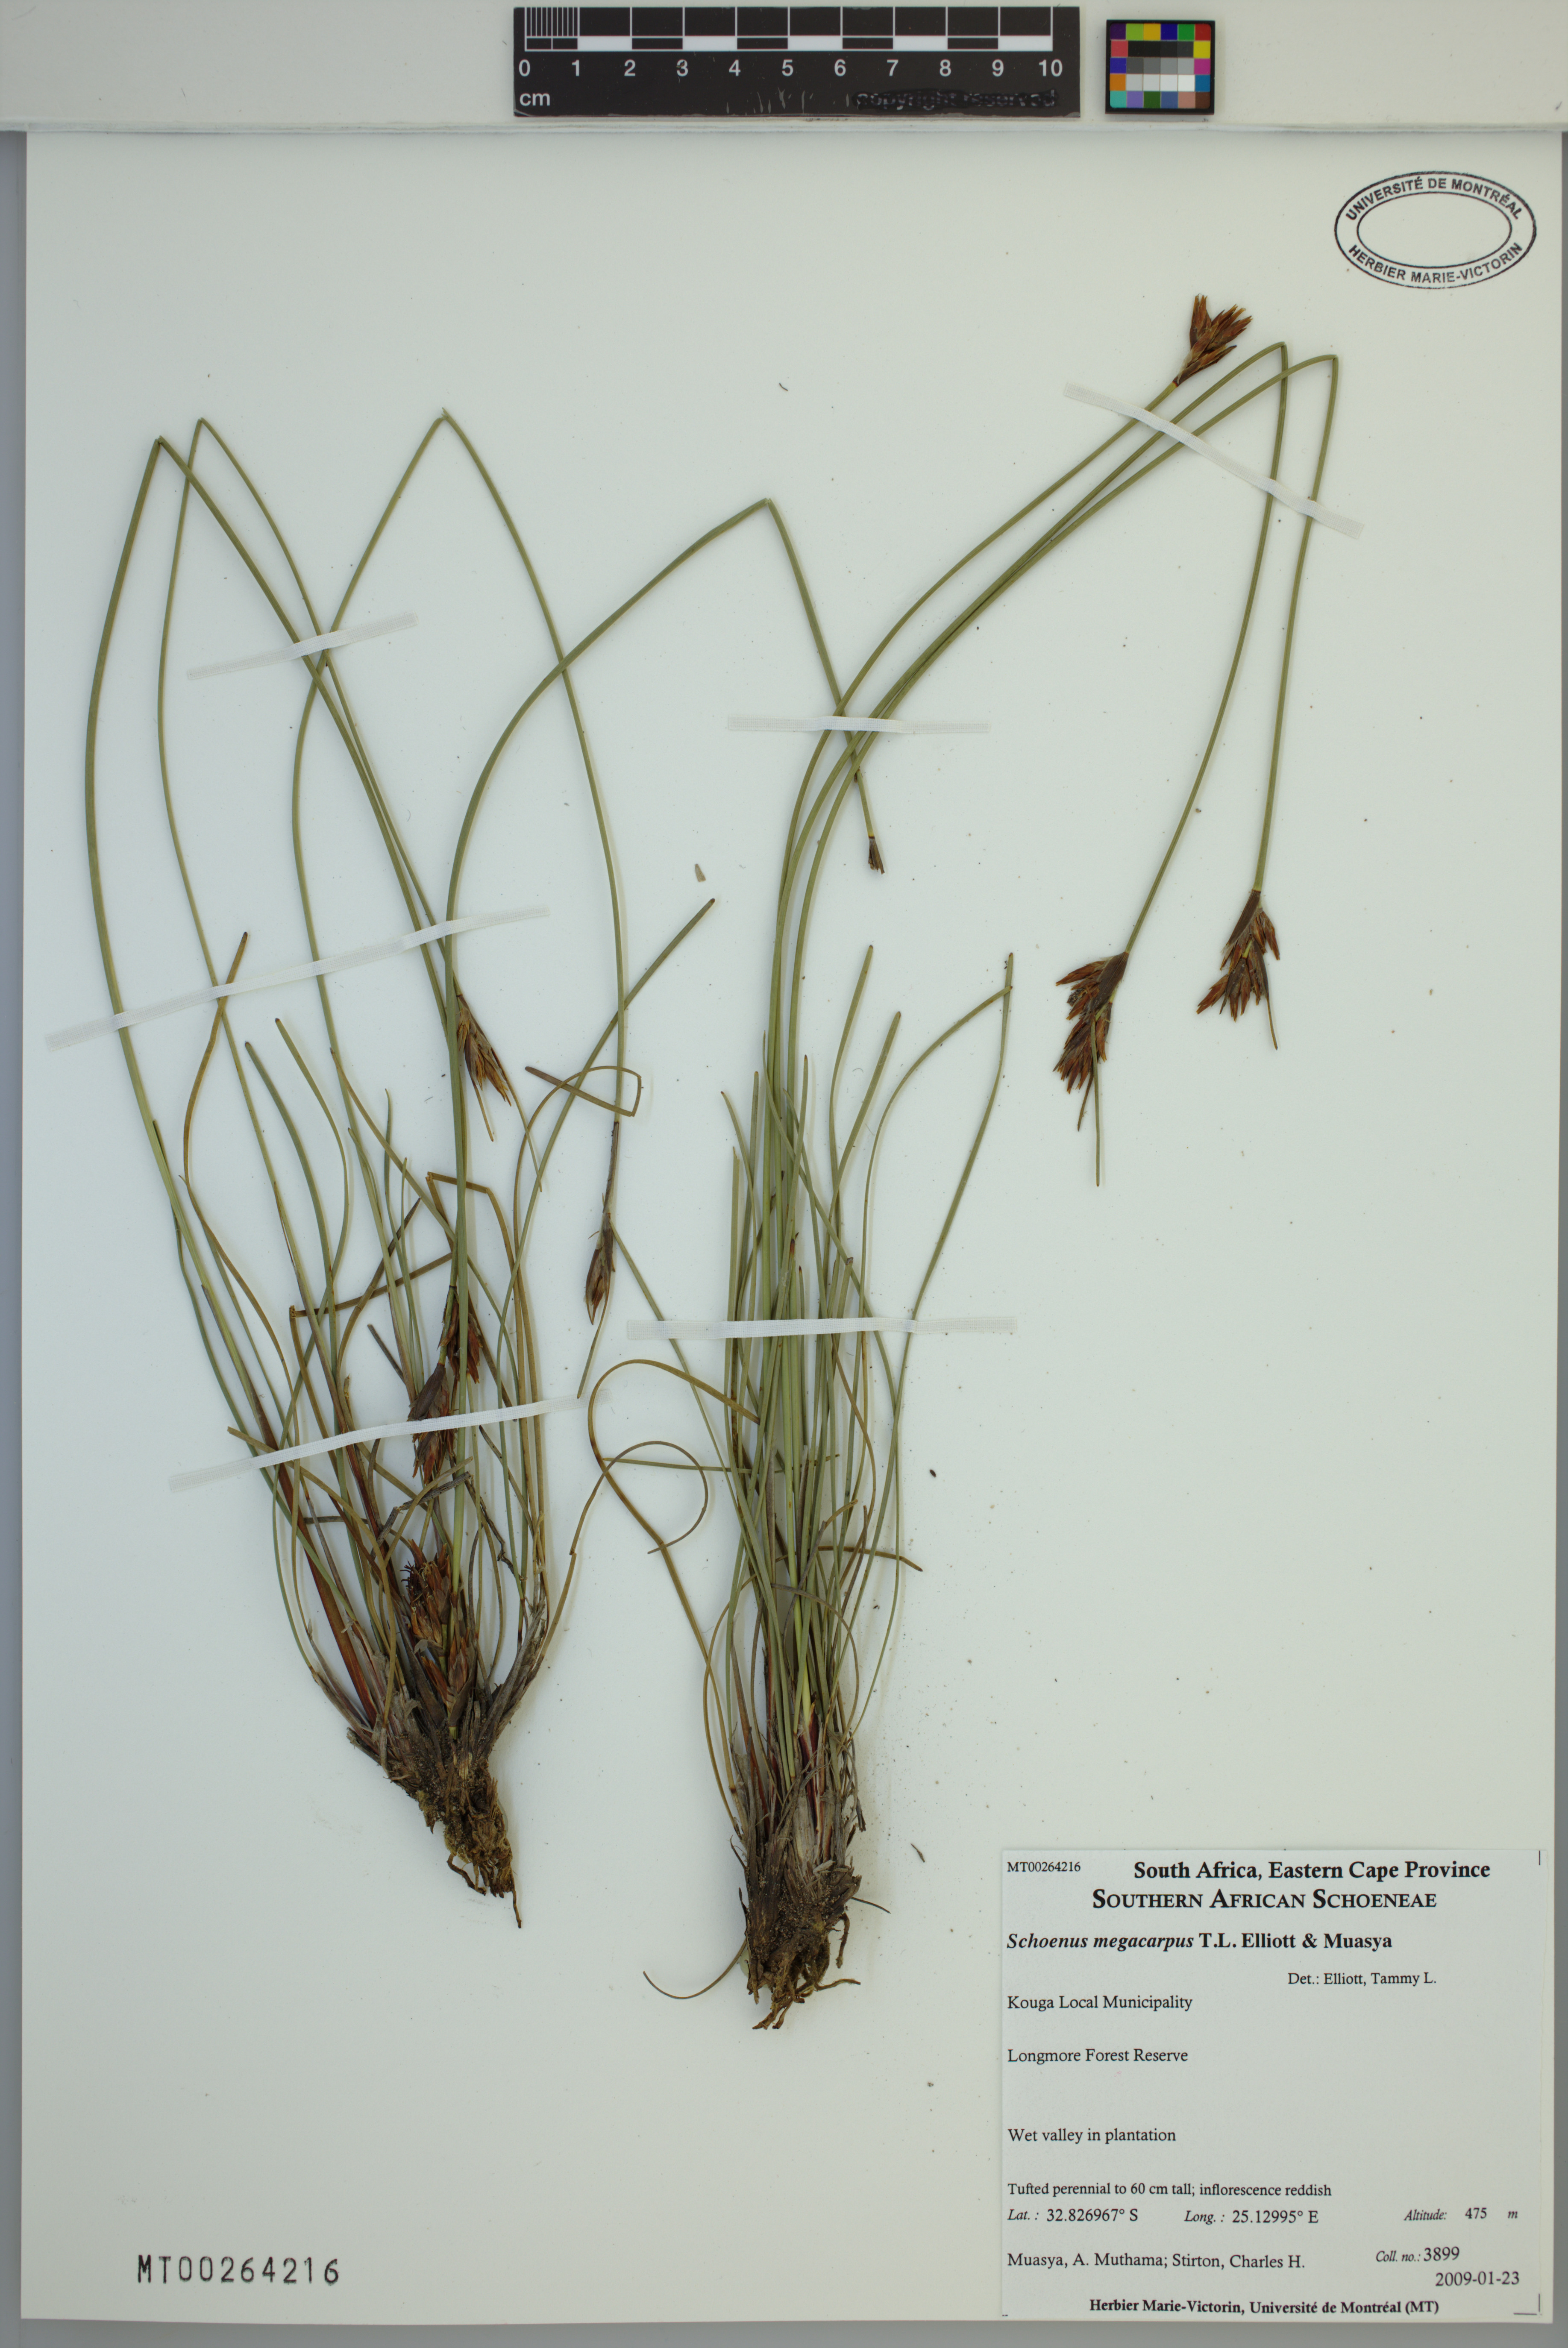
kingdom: Plantae
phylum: Tracheophyta
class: Liliopsida
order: Poales
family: Cyperaceae
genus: Schoenus
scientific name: Schoenus megacarpus
